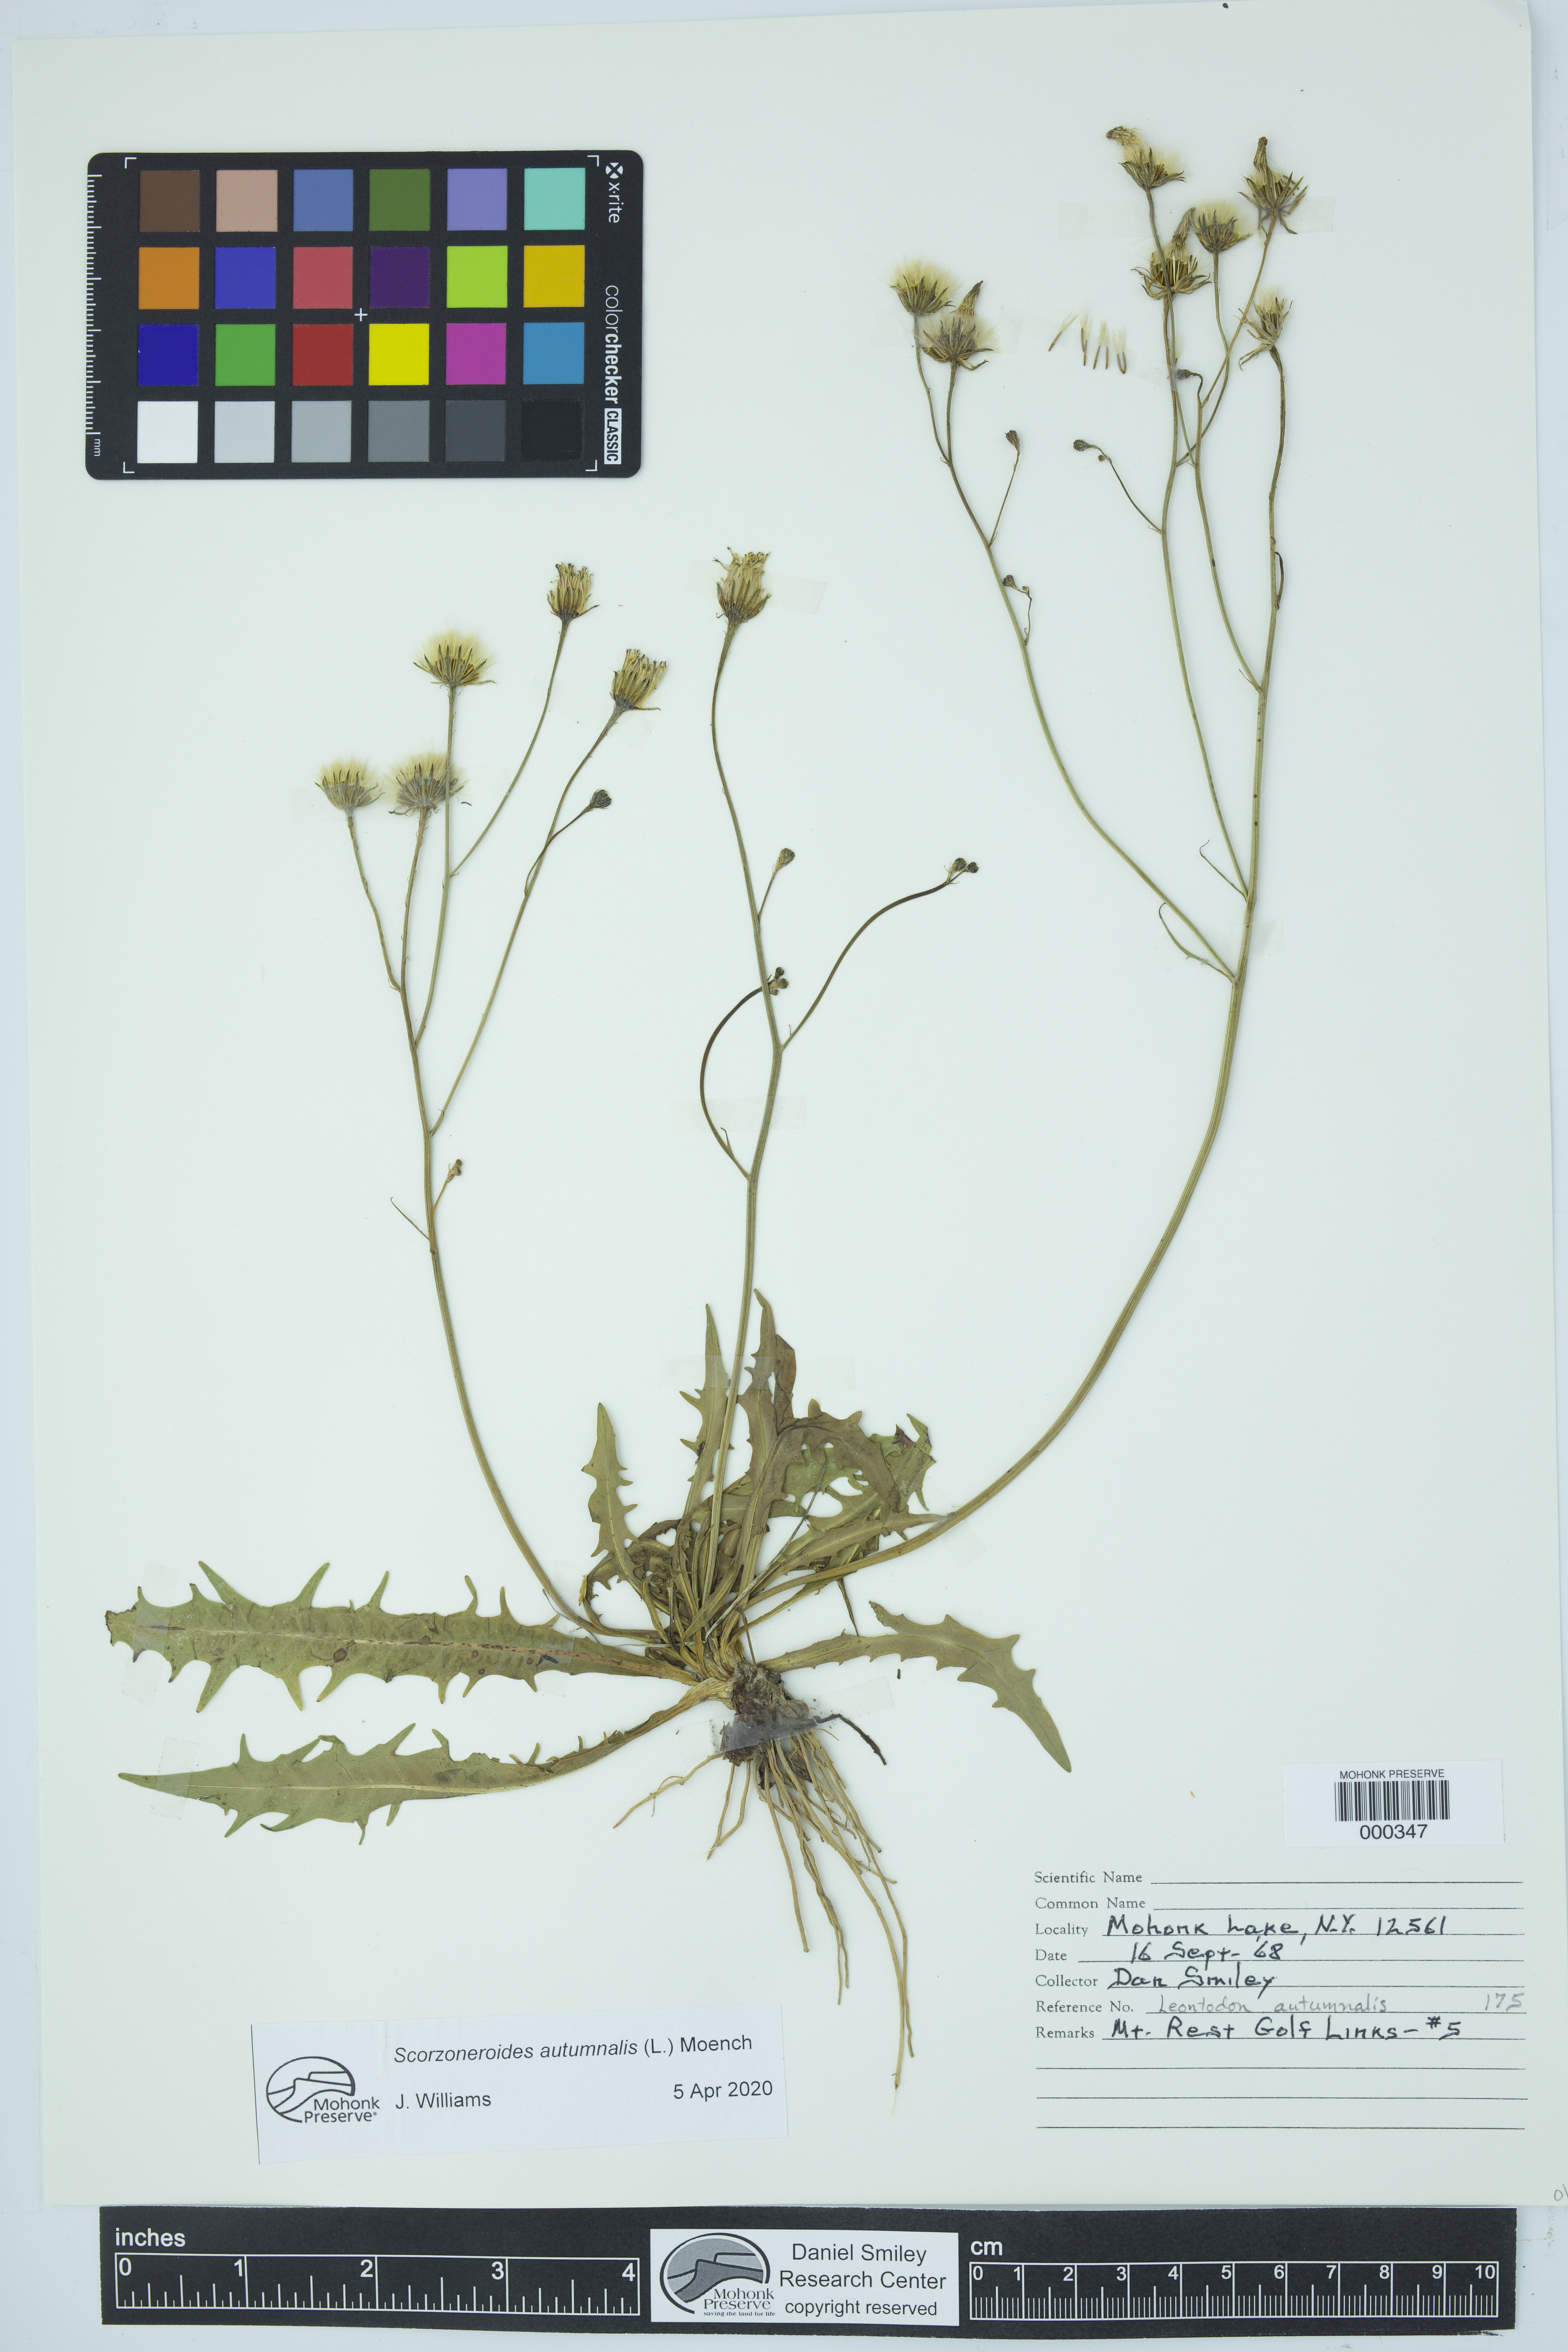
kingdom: Plantae
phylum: Tracheophyta
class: Magnoliopsida
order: Asterales
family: Asteraceae
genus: Scorzoneroides
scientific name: Scorzoneroides autumnalis
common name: Autumn hawkbit
